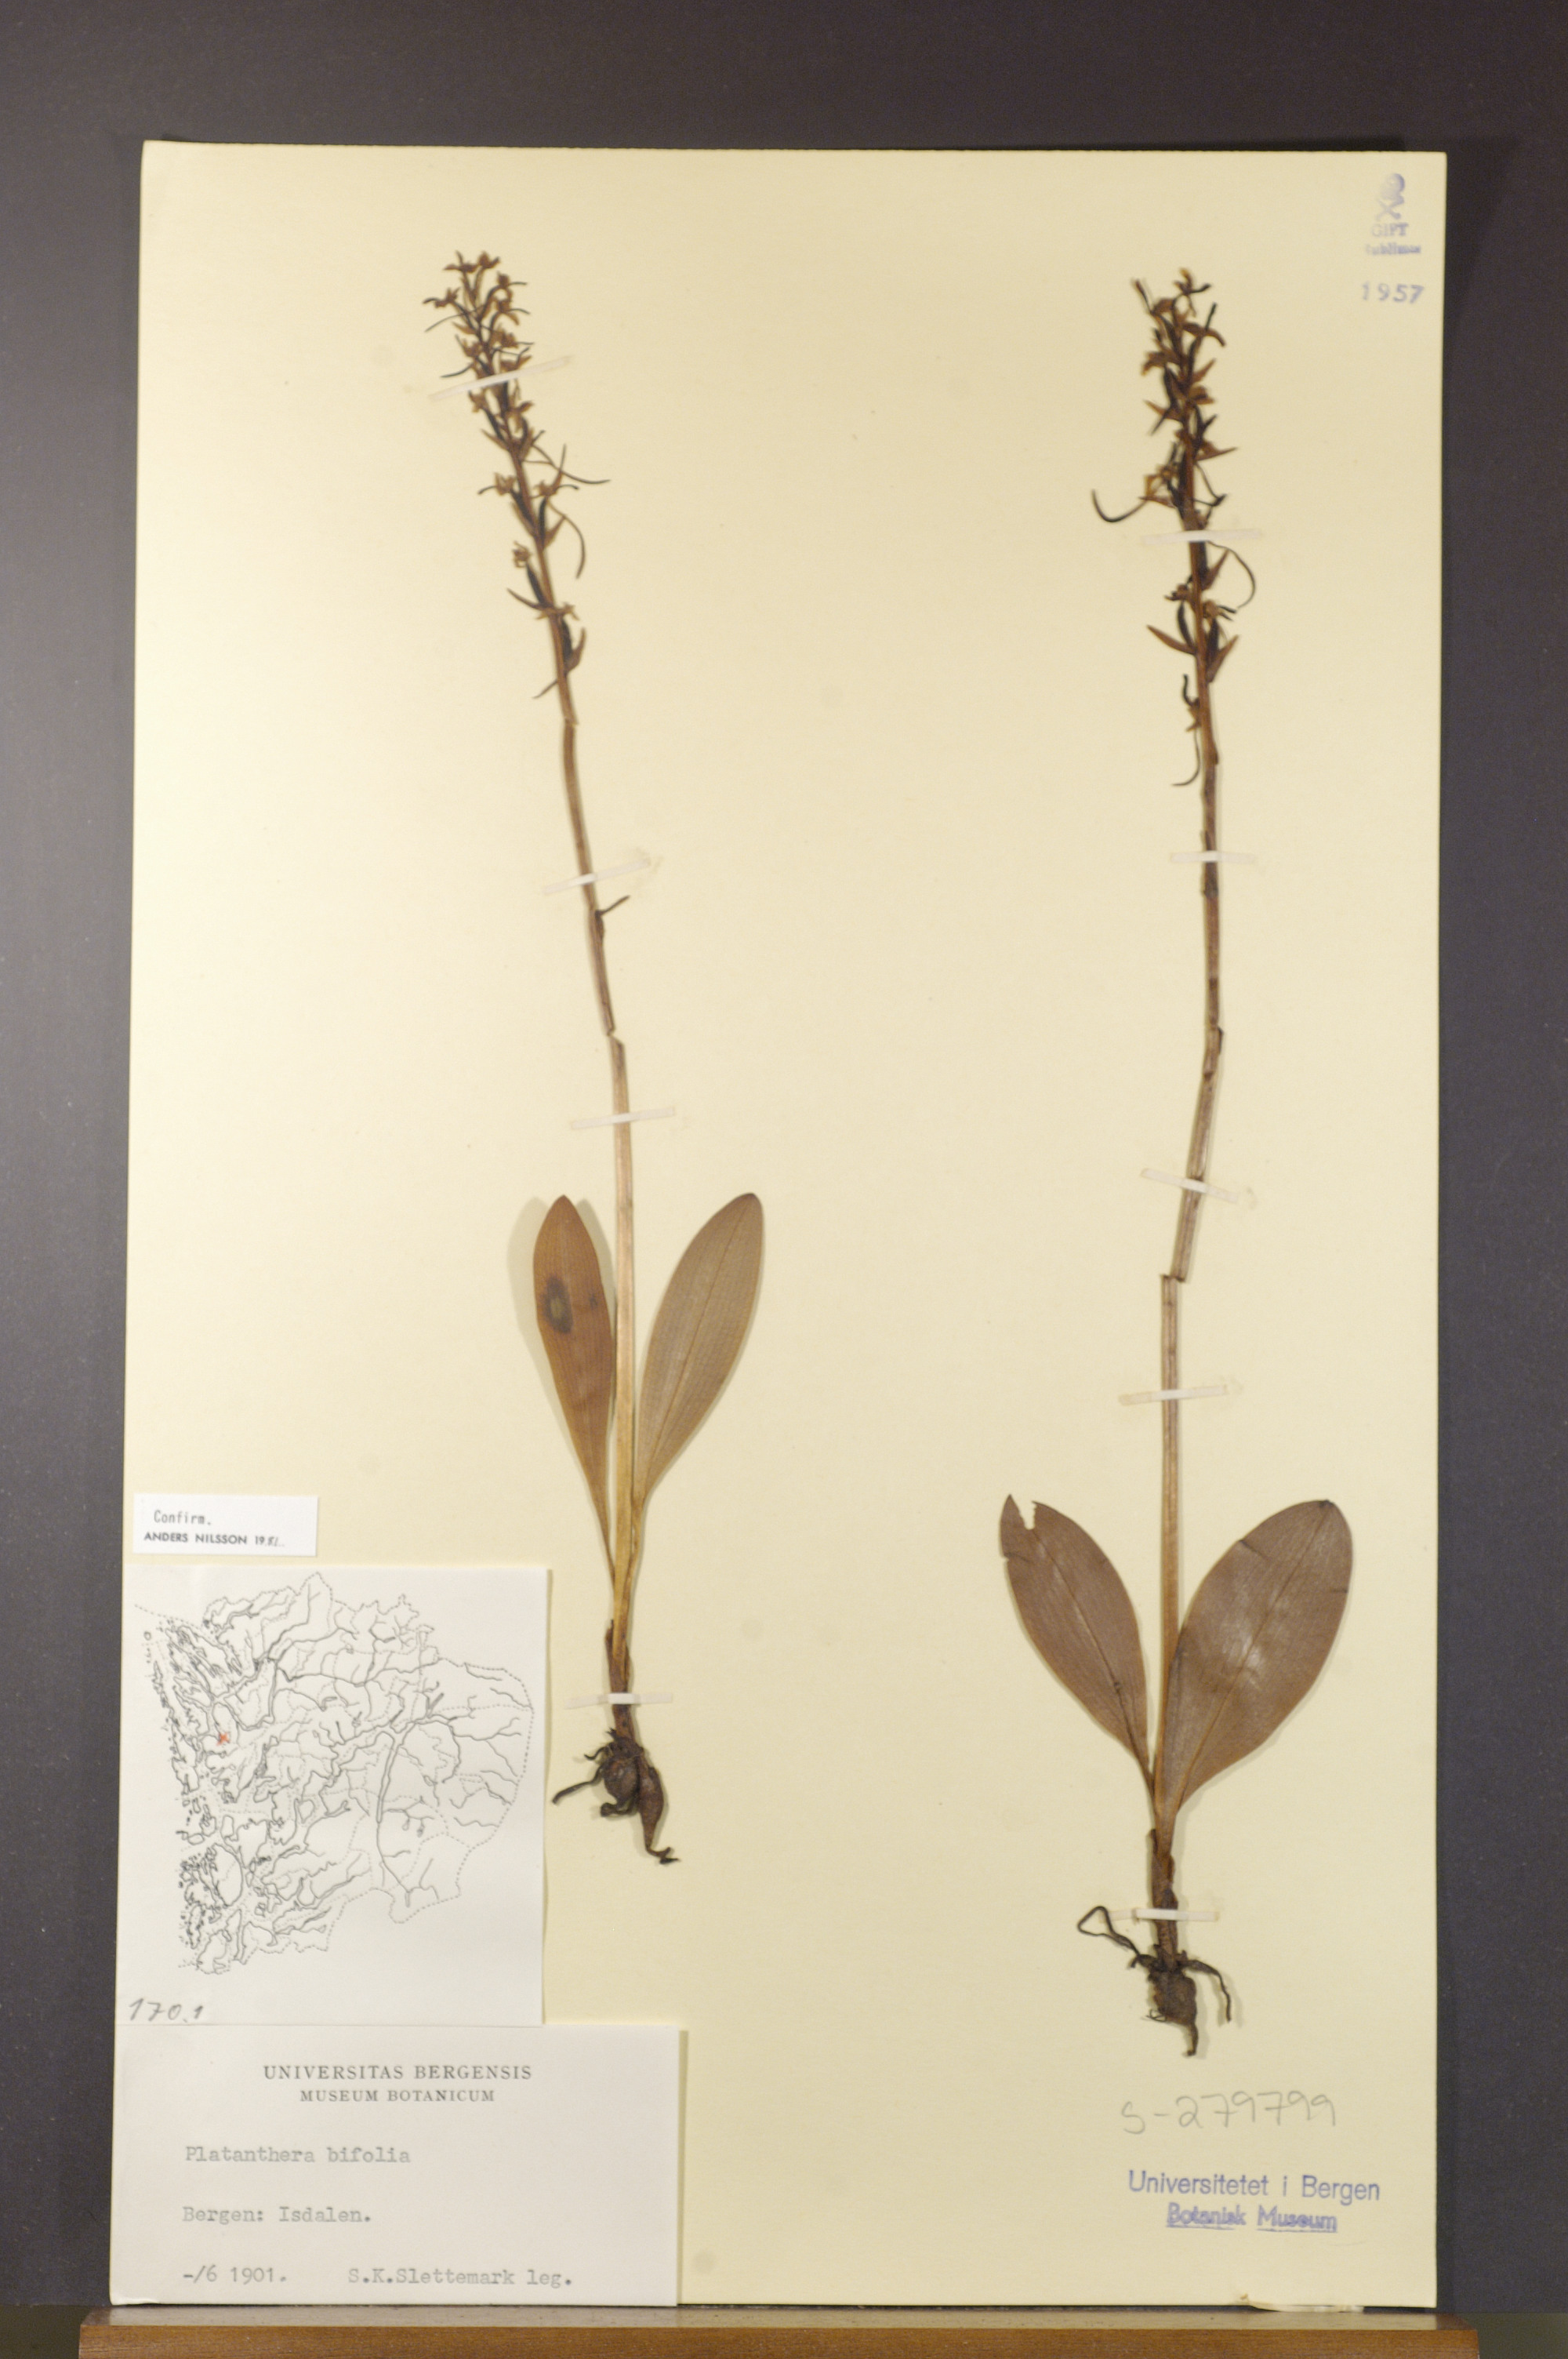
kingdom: Plantae
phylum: Tracheophyta
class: Liliopsida
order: Asparagales
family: Orchidaceae
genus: Platanthera
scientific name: Platanthera bifolia
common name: Lesser butterfly-orchid
